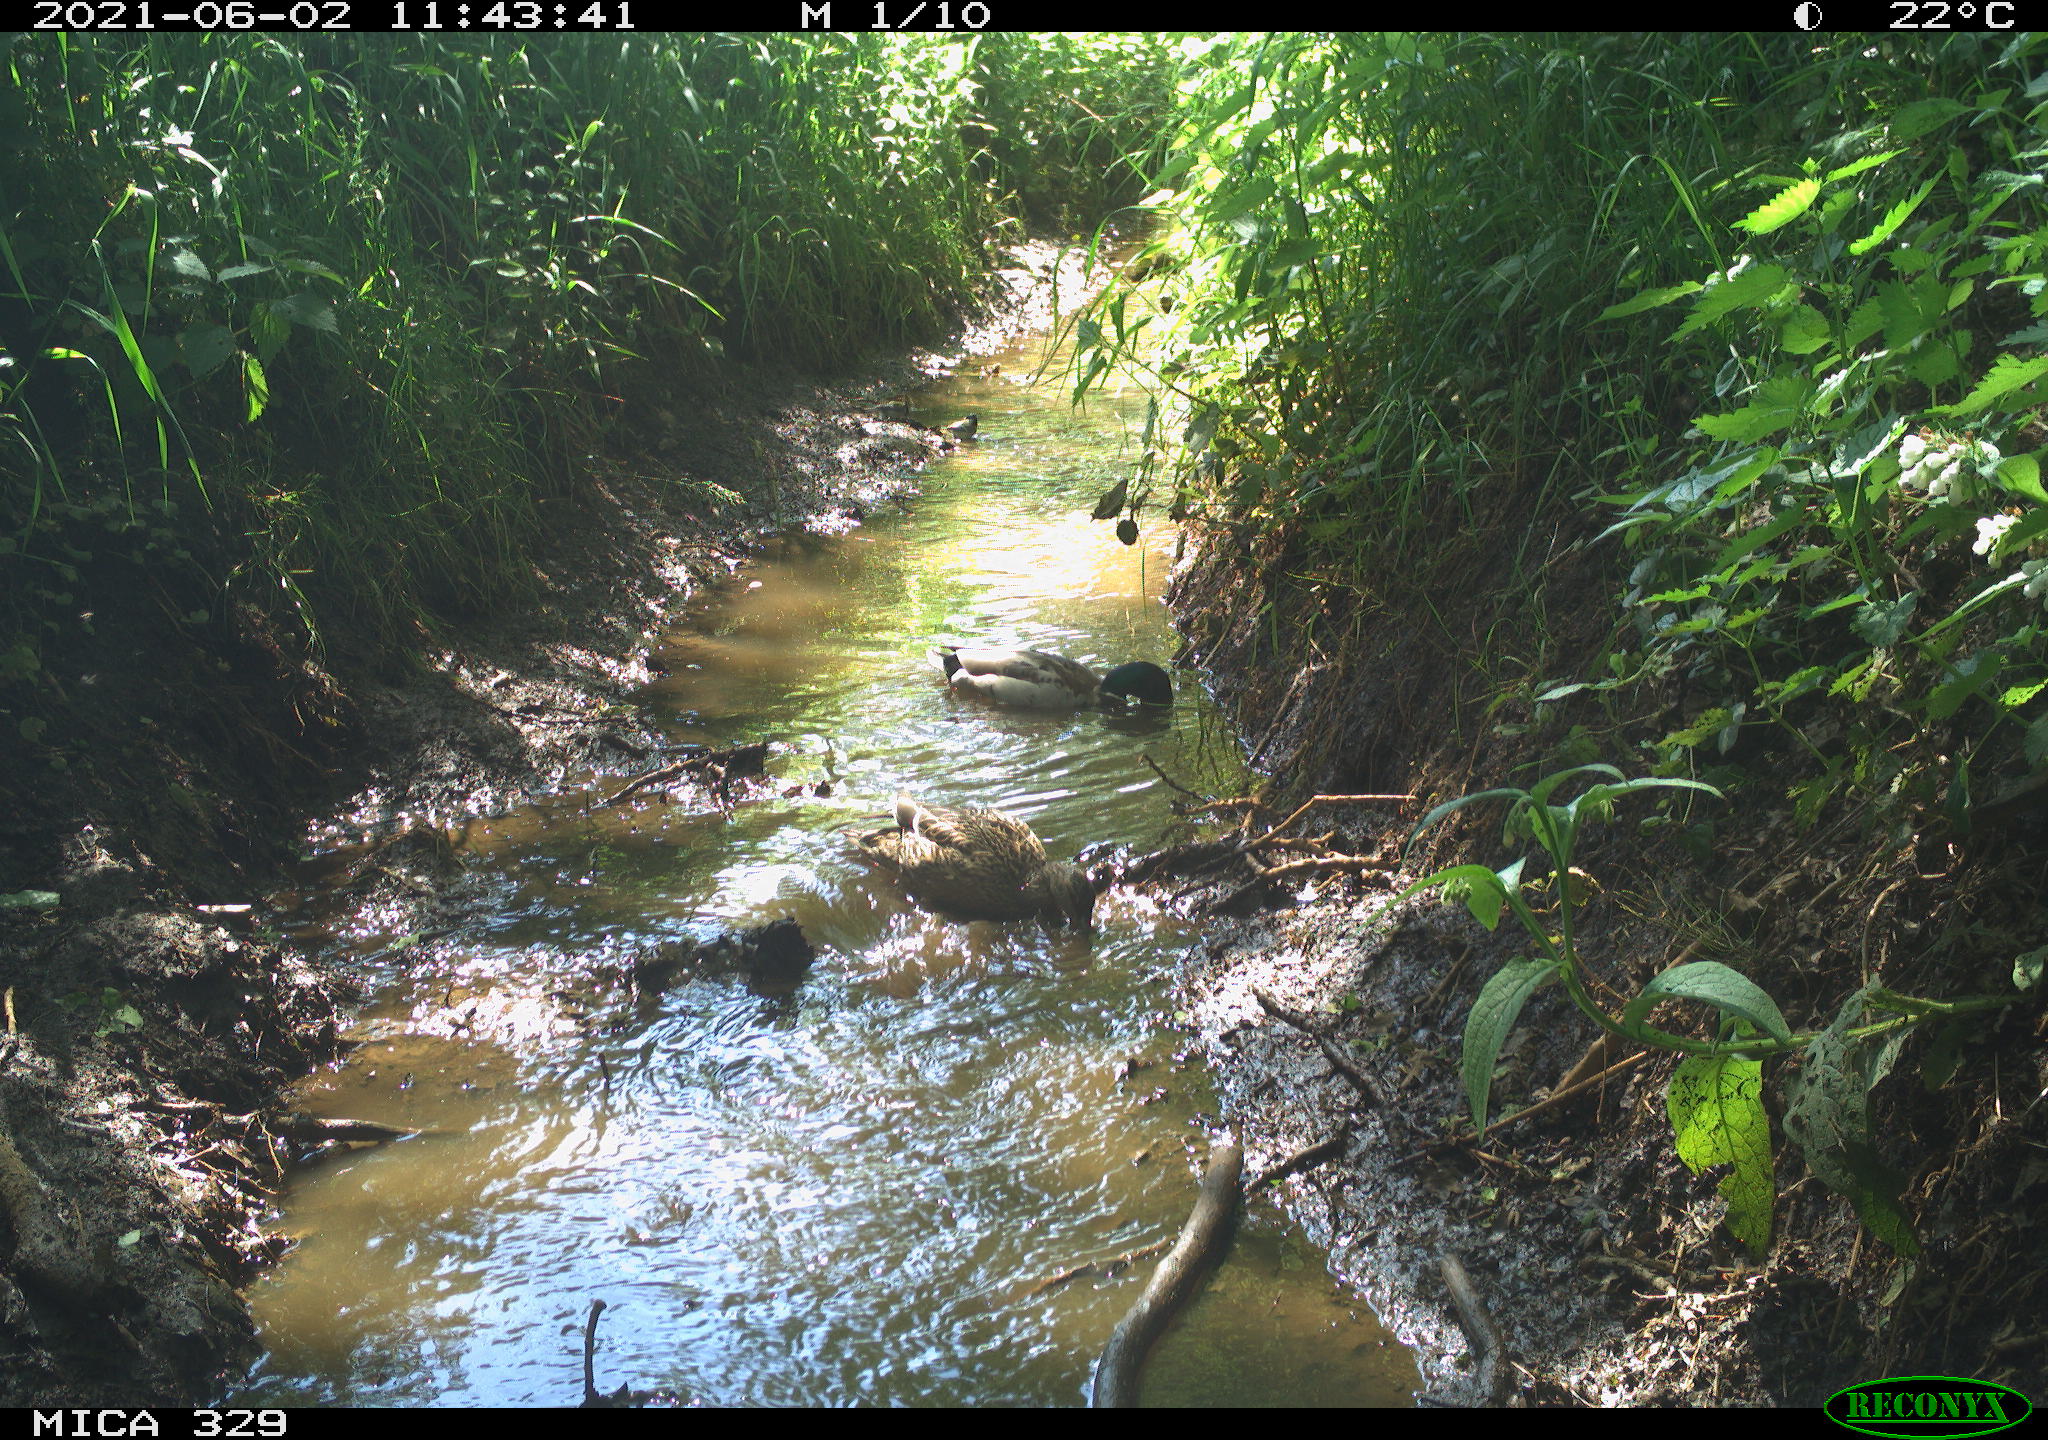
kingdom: Animalia
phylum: Chordata
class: Aves
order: Anseriformes
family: Anatidae
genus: Anas
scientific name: Anas platyrhynchos
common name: Mallard
